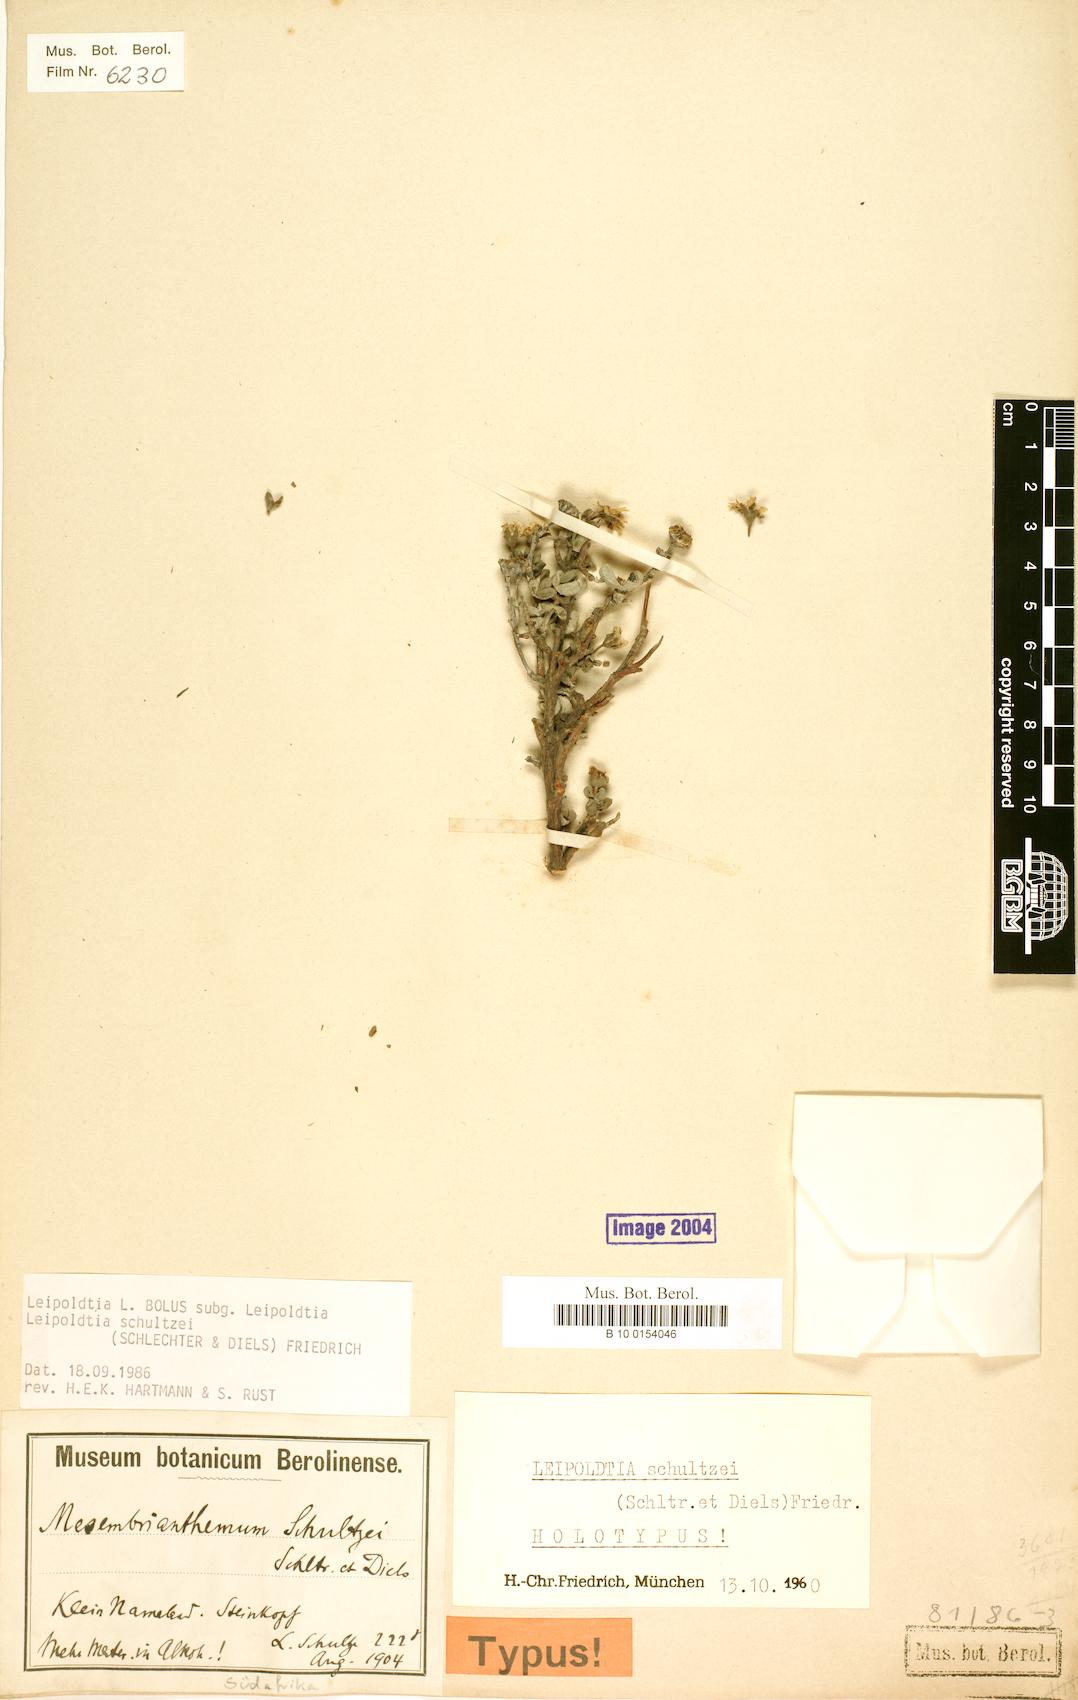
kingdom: Plantae
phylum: Tracheophyta
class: Magnoliopsida
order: Caryophyllales
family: Aizoaceae
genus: Leipoldtia
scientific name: Leipoldtia schultzei
